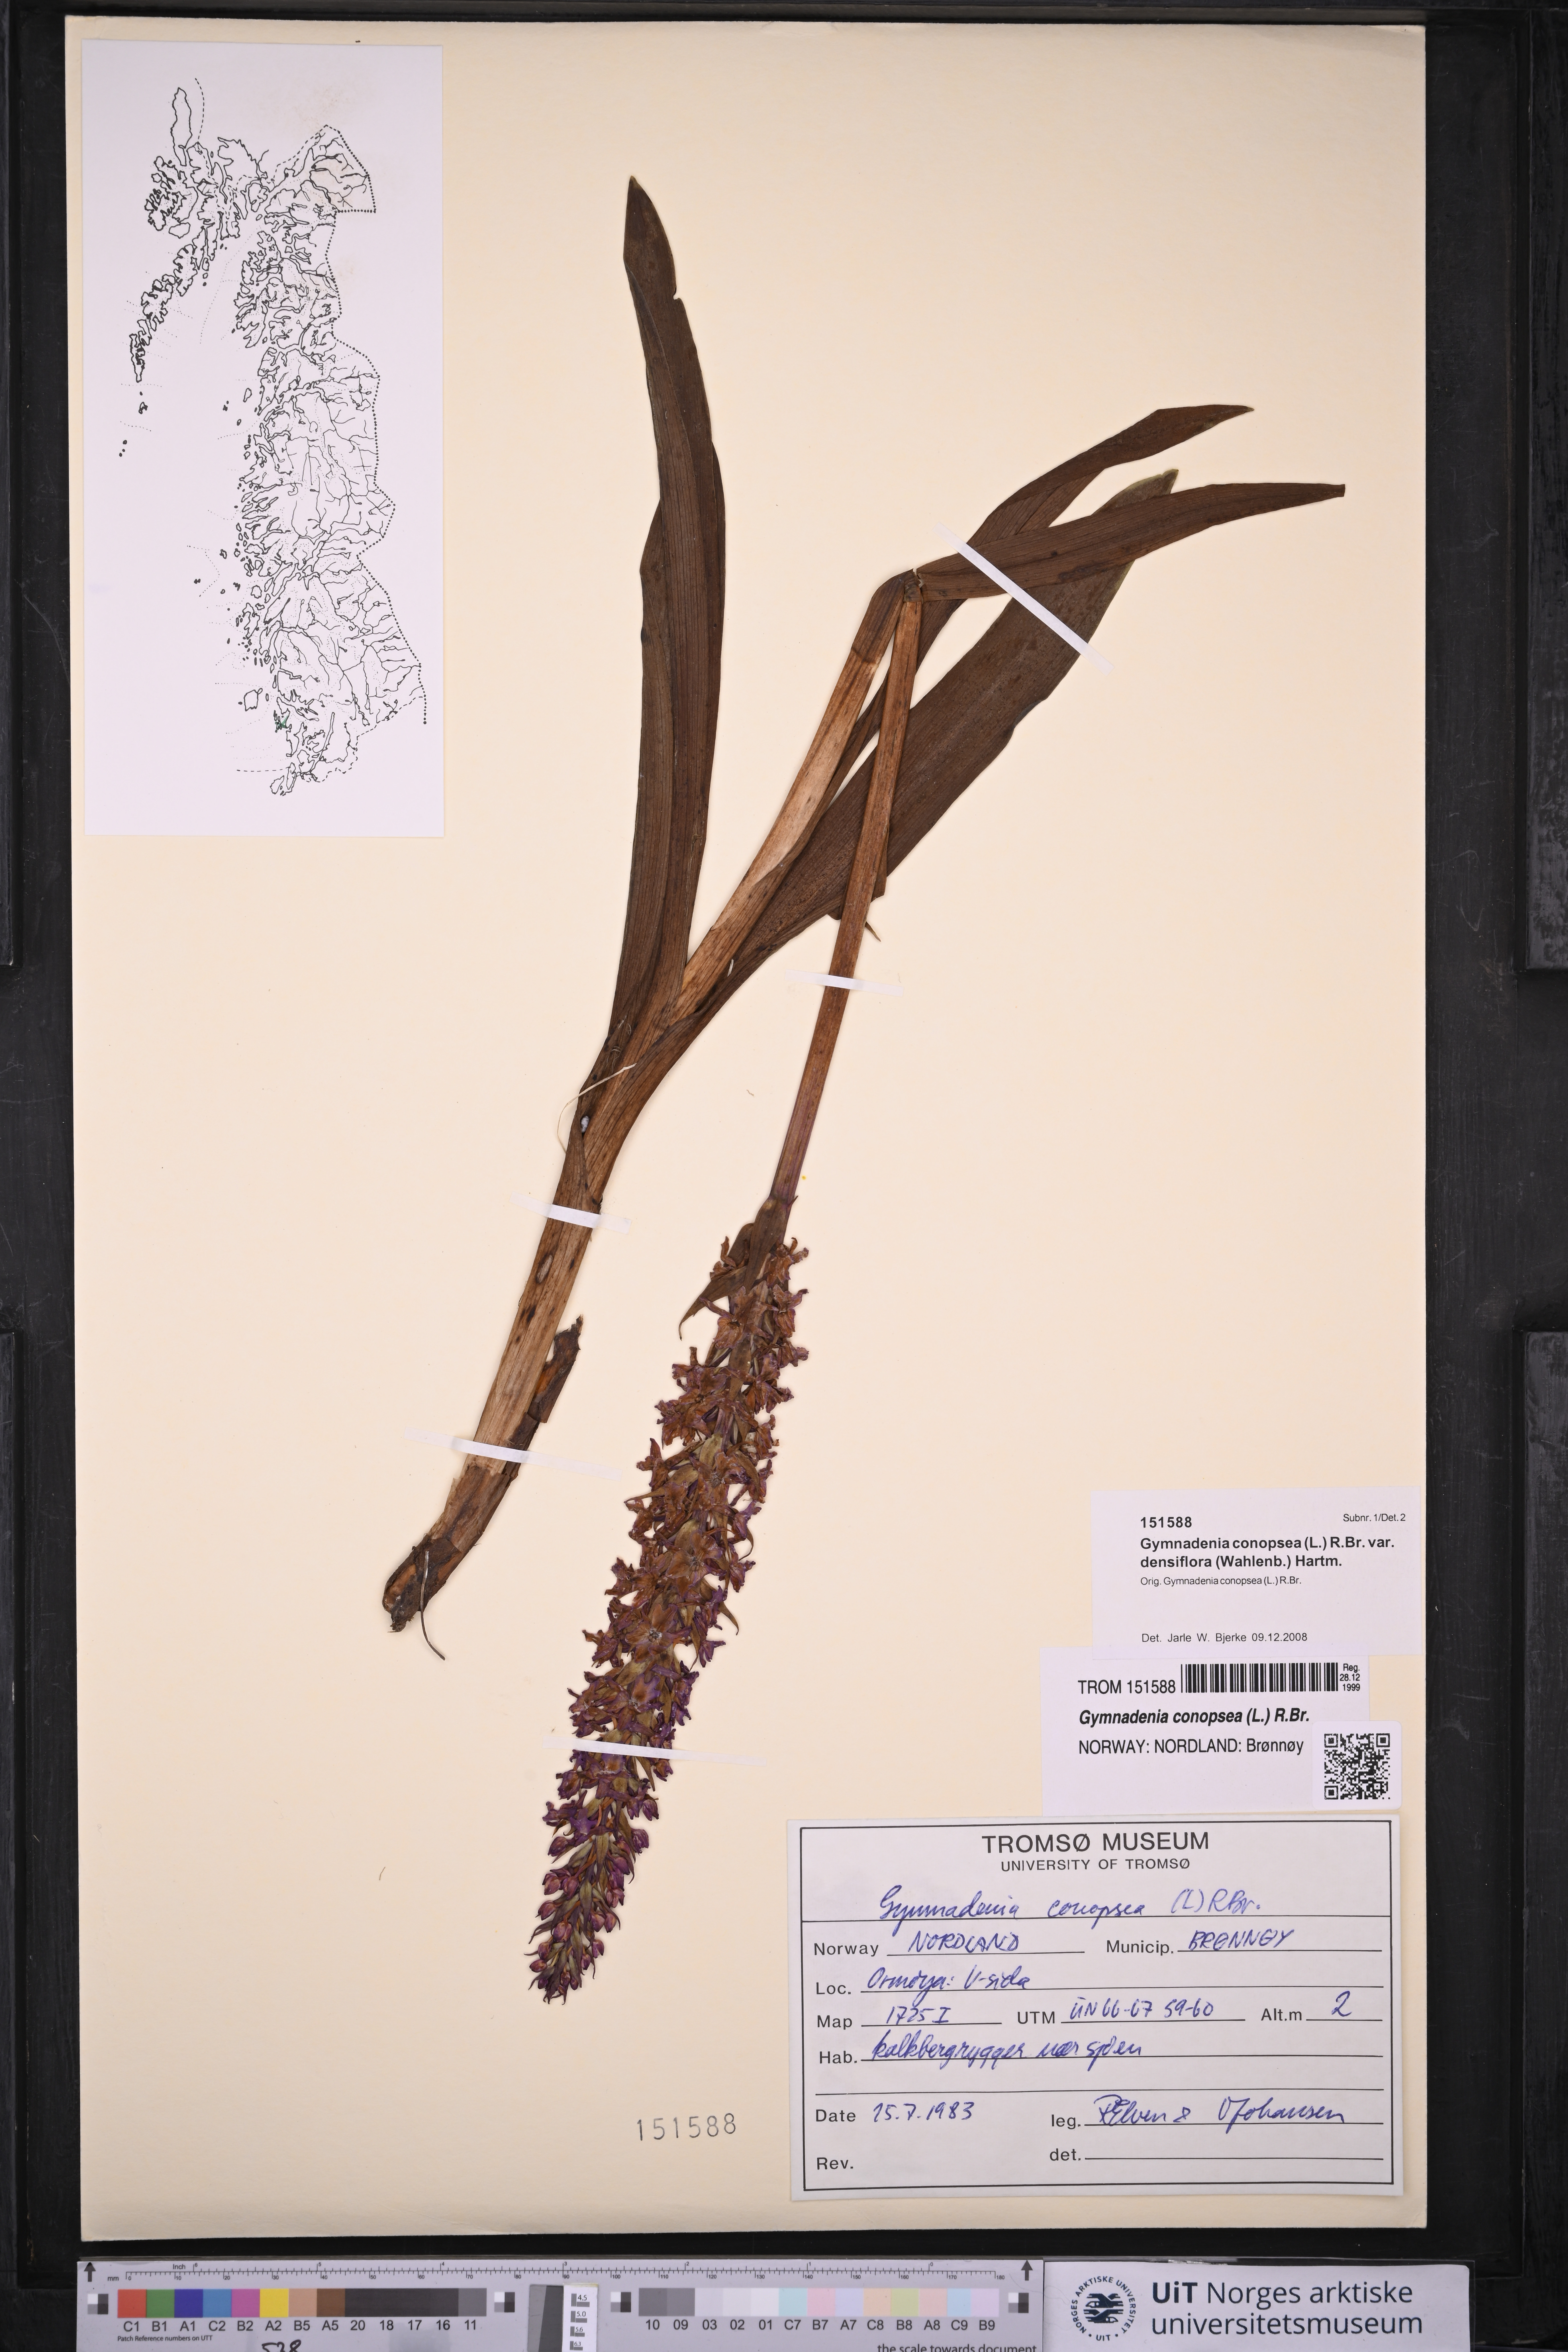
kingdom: Plantae
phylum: Tracheophyta
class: Liliopsida
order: Asparagales
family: Orchidaceae
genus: Gymnadenia
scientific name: Gymnadenia densiflora
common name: Marsh fragrant-orchid
